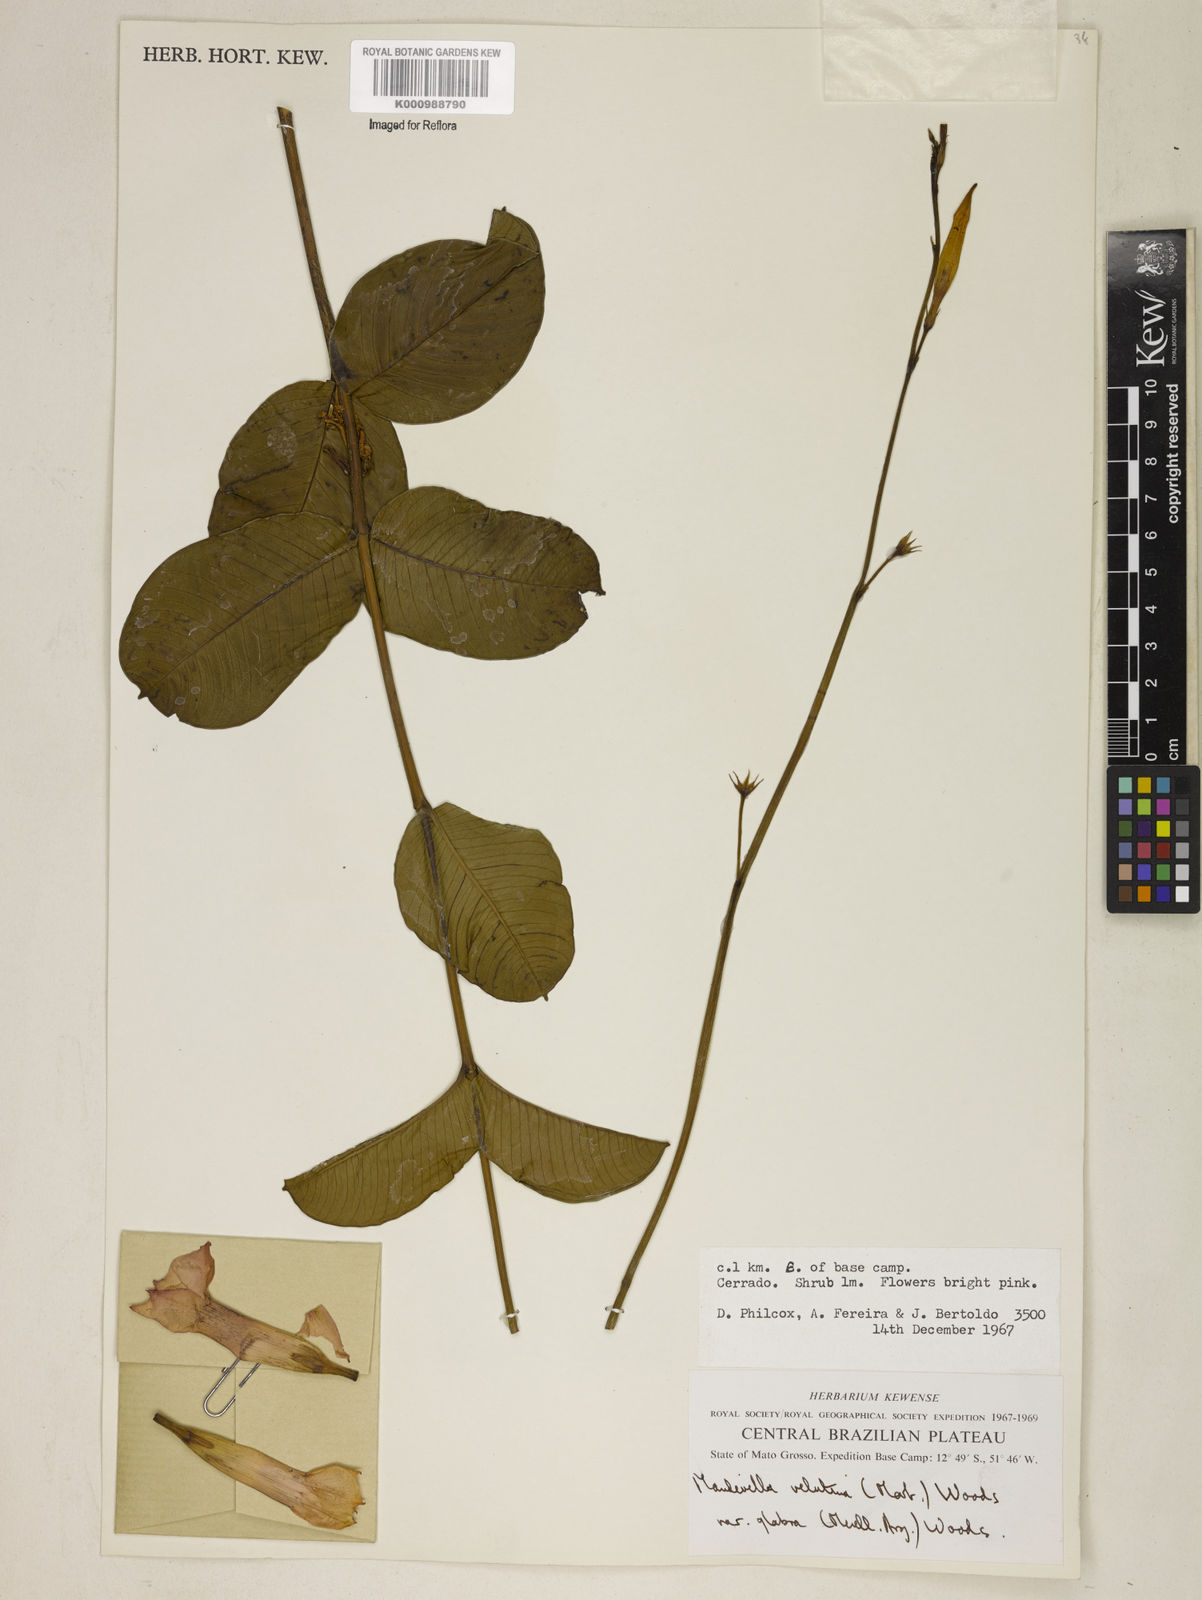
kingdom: Plantae
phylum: Tracheophyta
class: Magnoliopsida
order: Gentianales
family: Apocynaceae
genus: Mandevilla
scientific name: Mandevilla pohliana
